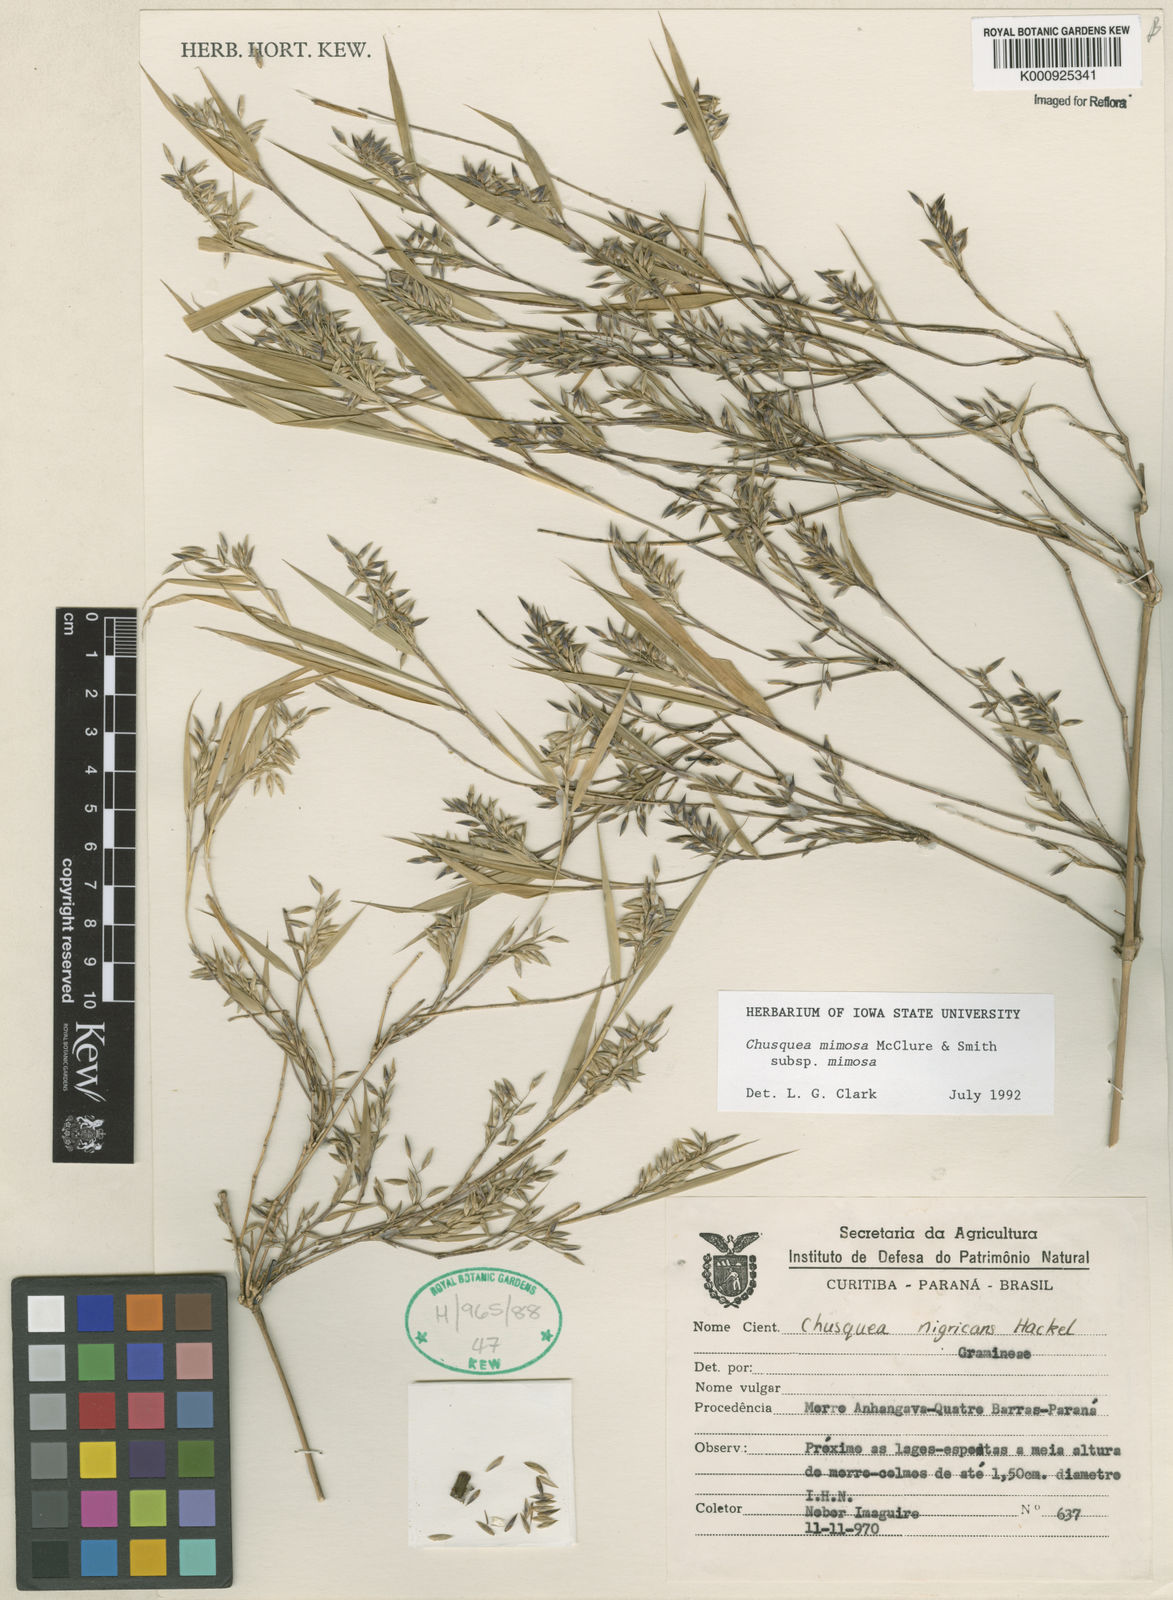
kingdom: Plantae
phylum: Tracheophyta
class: Liliopsida
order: Poales
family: Poaceae
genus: Chusquea
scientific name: Chusquea mimosa
